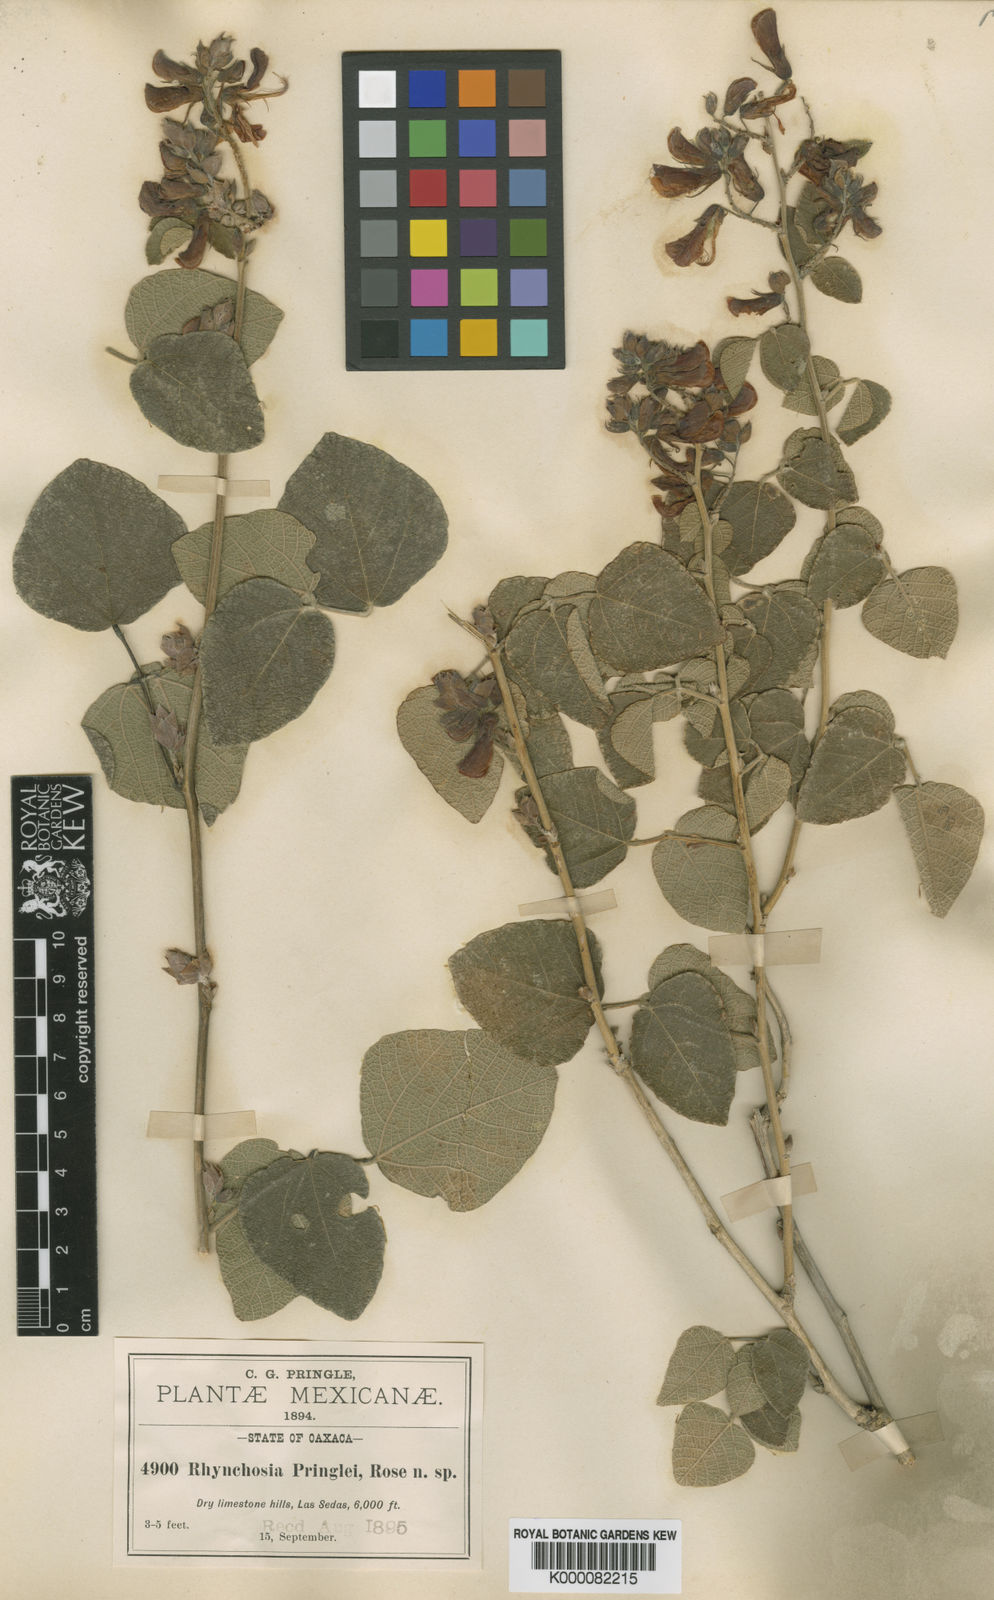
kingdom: Plantae
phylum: Tracheophyta
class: Magnoliopsida
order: Fabales
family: Fabaceae
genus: Rhynchosia
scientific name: Rhynchosia pringlei
